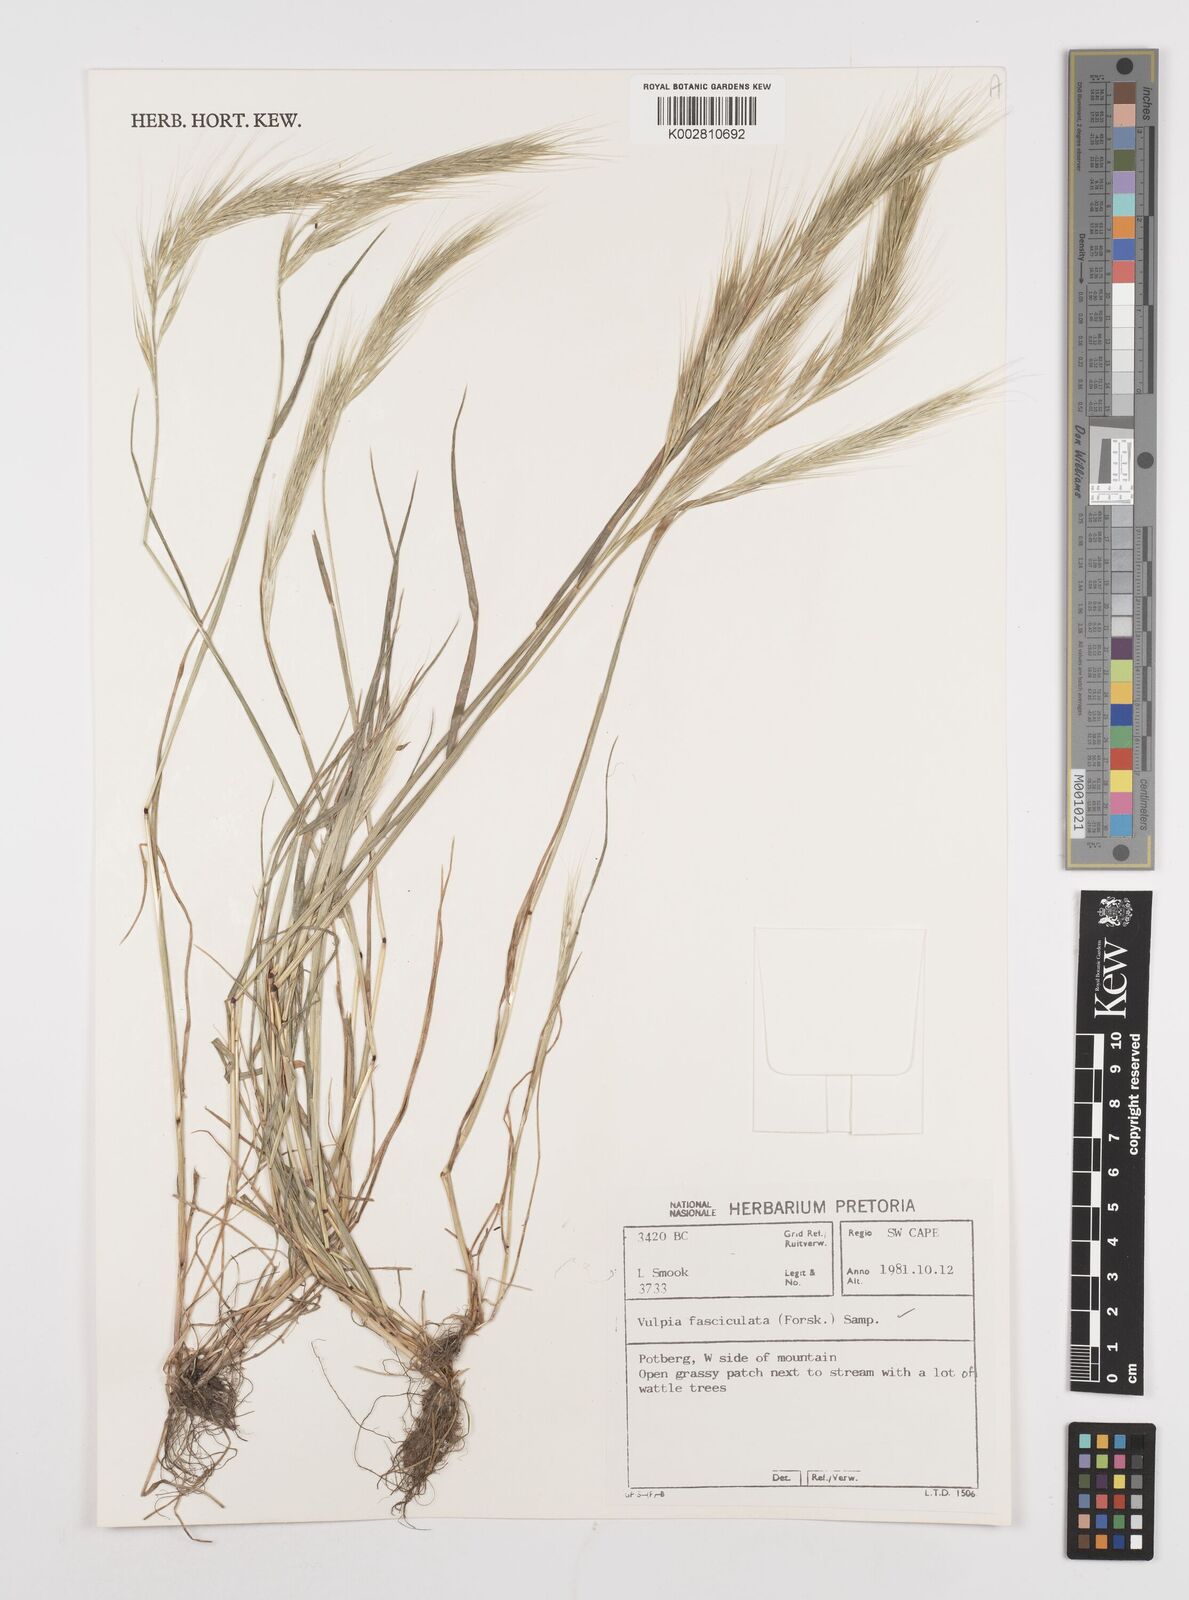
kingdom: Plantae
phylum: Tracheophyta
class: Liliopsida
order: Poales
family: Poaceae
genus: Festuca
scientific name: Festuca fasciculata
